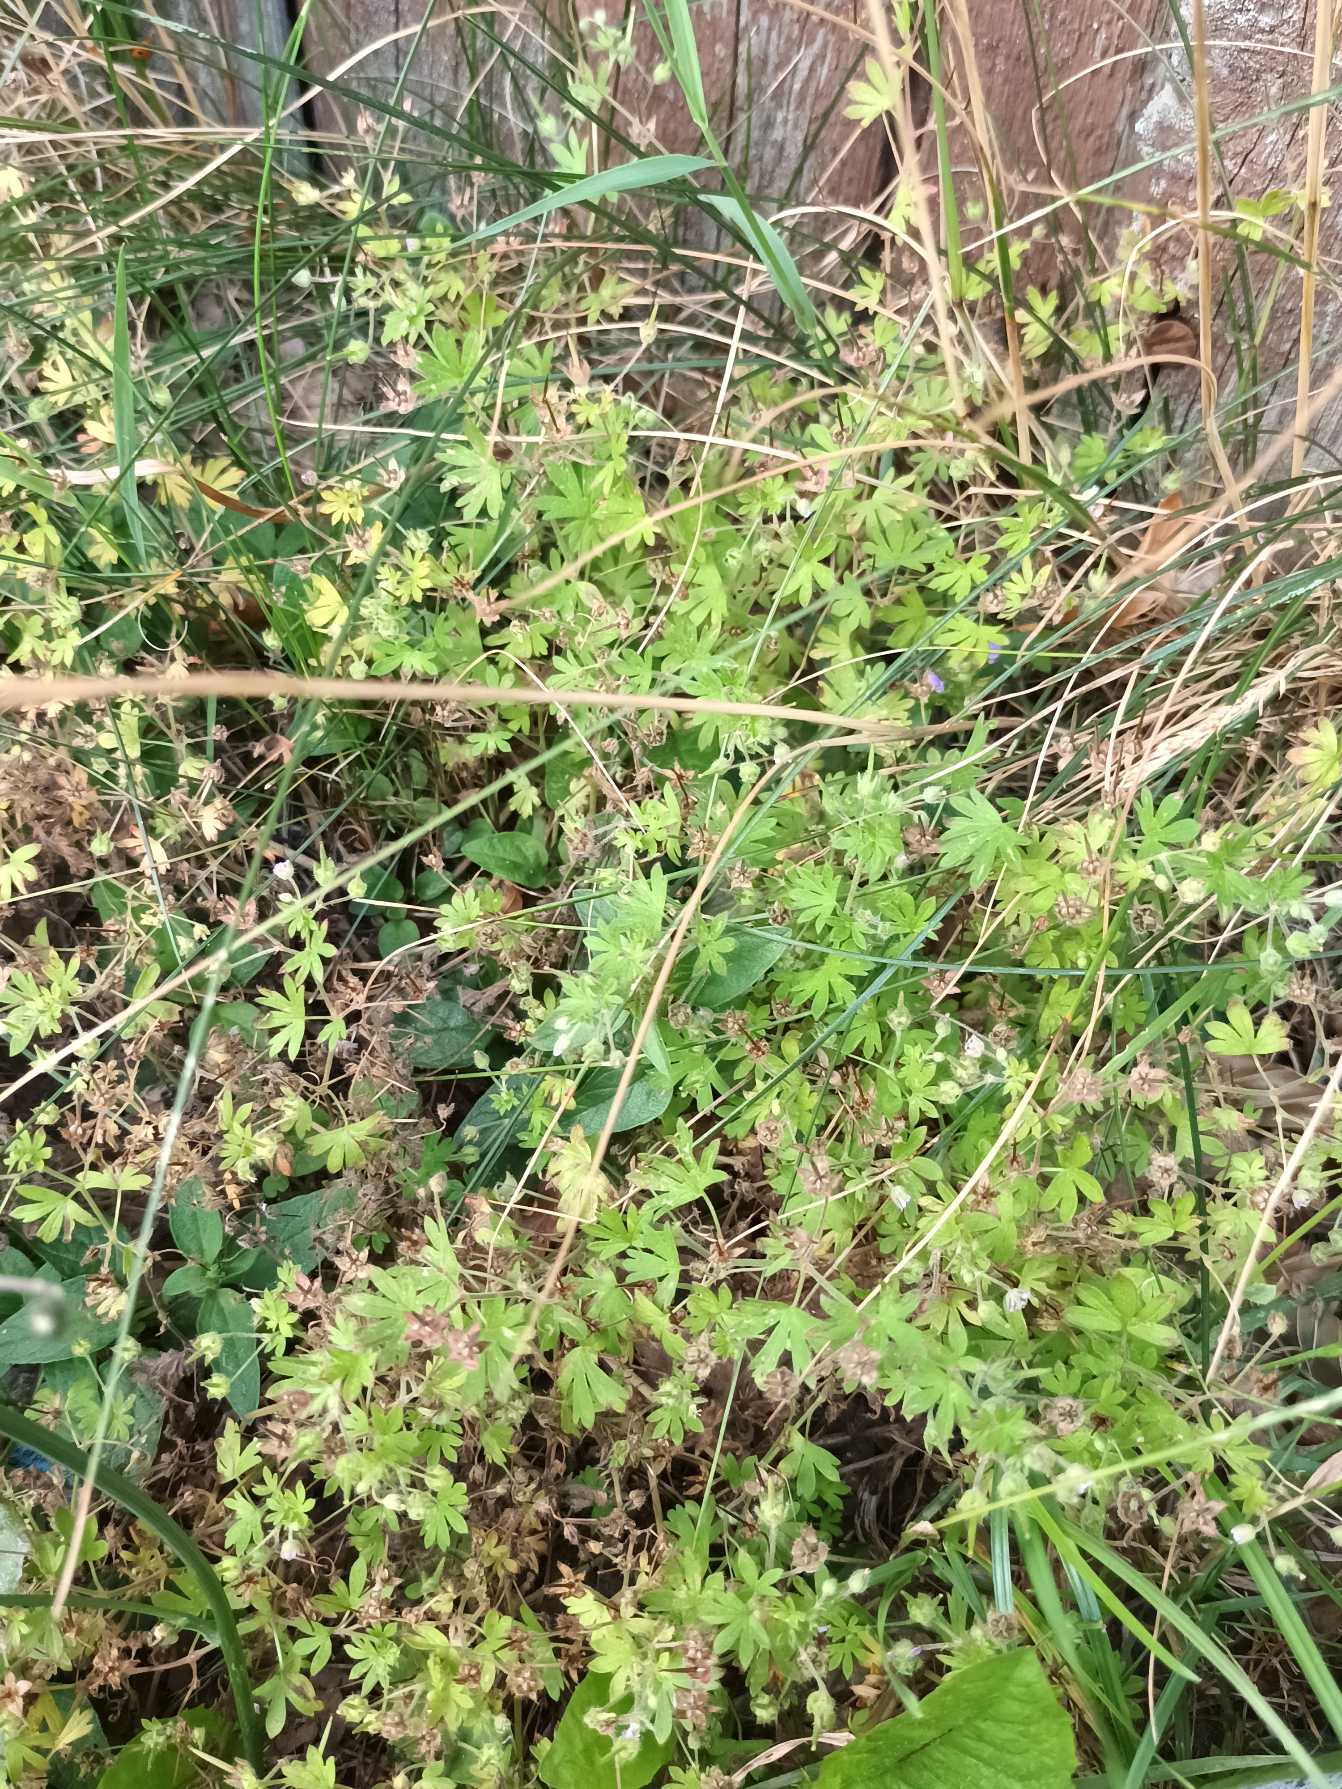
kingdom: Plantae
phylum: Tracheophyta
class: Magnoliopsida
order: Geraniales
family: Geraniaceae
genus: Geranium
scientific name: Geranium pusillum
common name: Liden storkenæb
